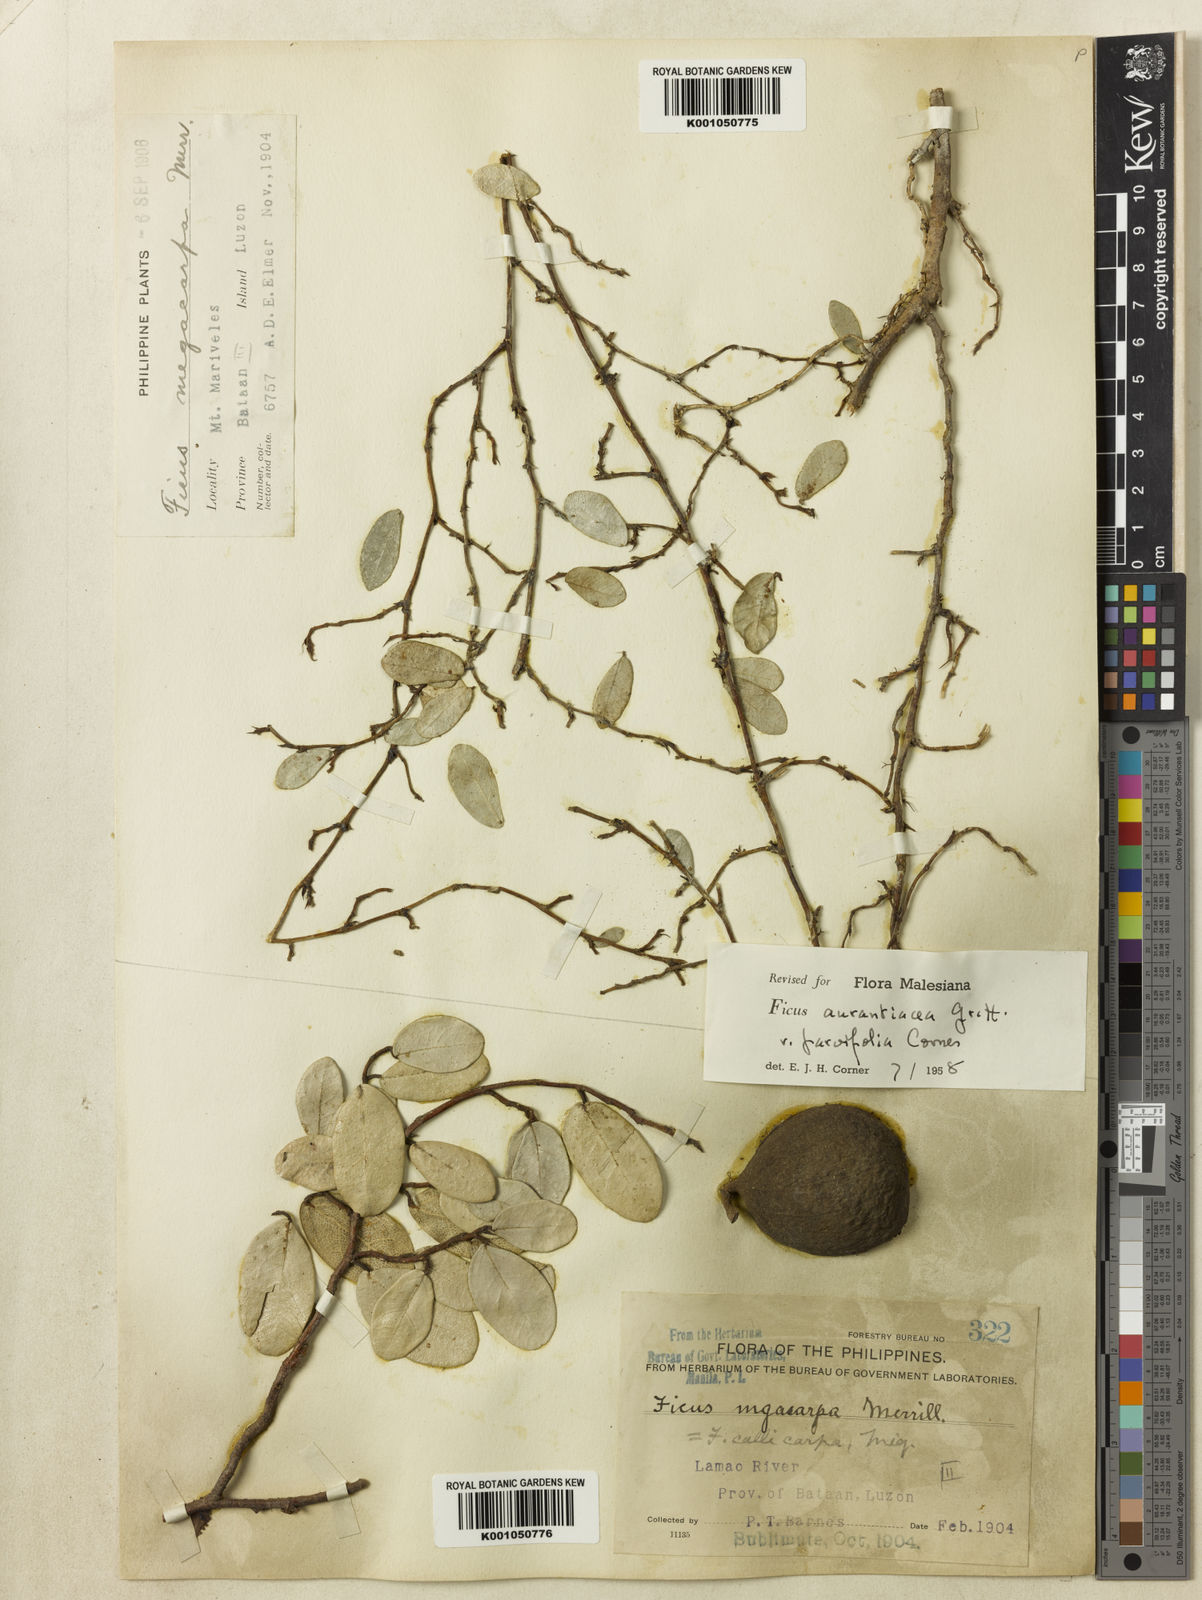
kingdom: Plantae
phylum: Tracheophyta
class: Magnoliopsida
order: Rosales
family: Moraceae
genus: Ficus
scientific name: Ficus
